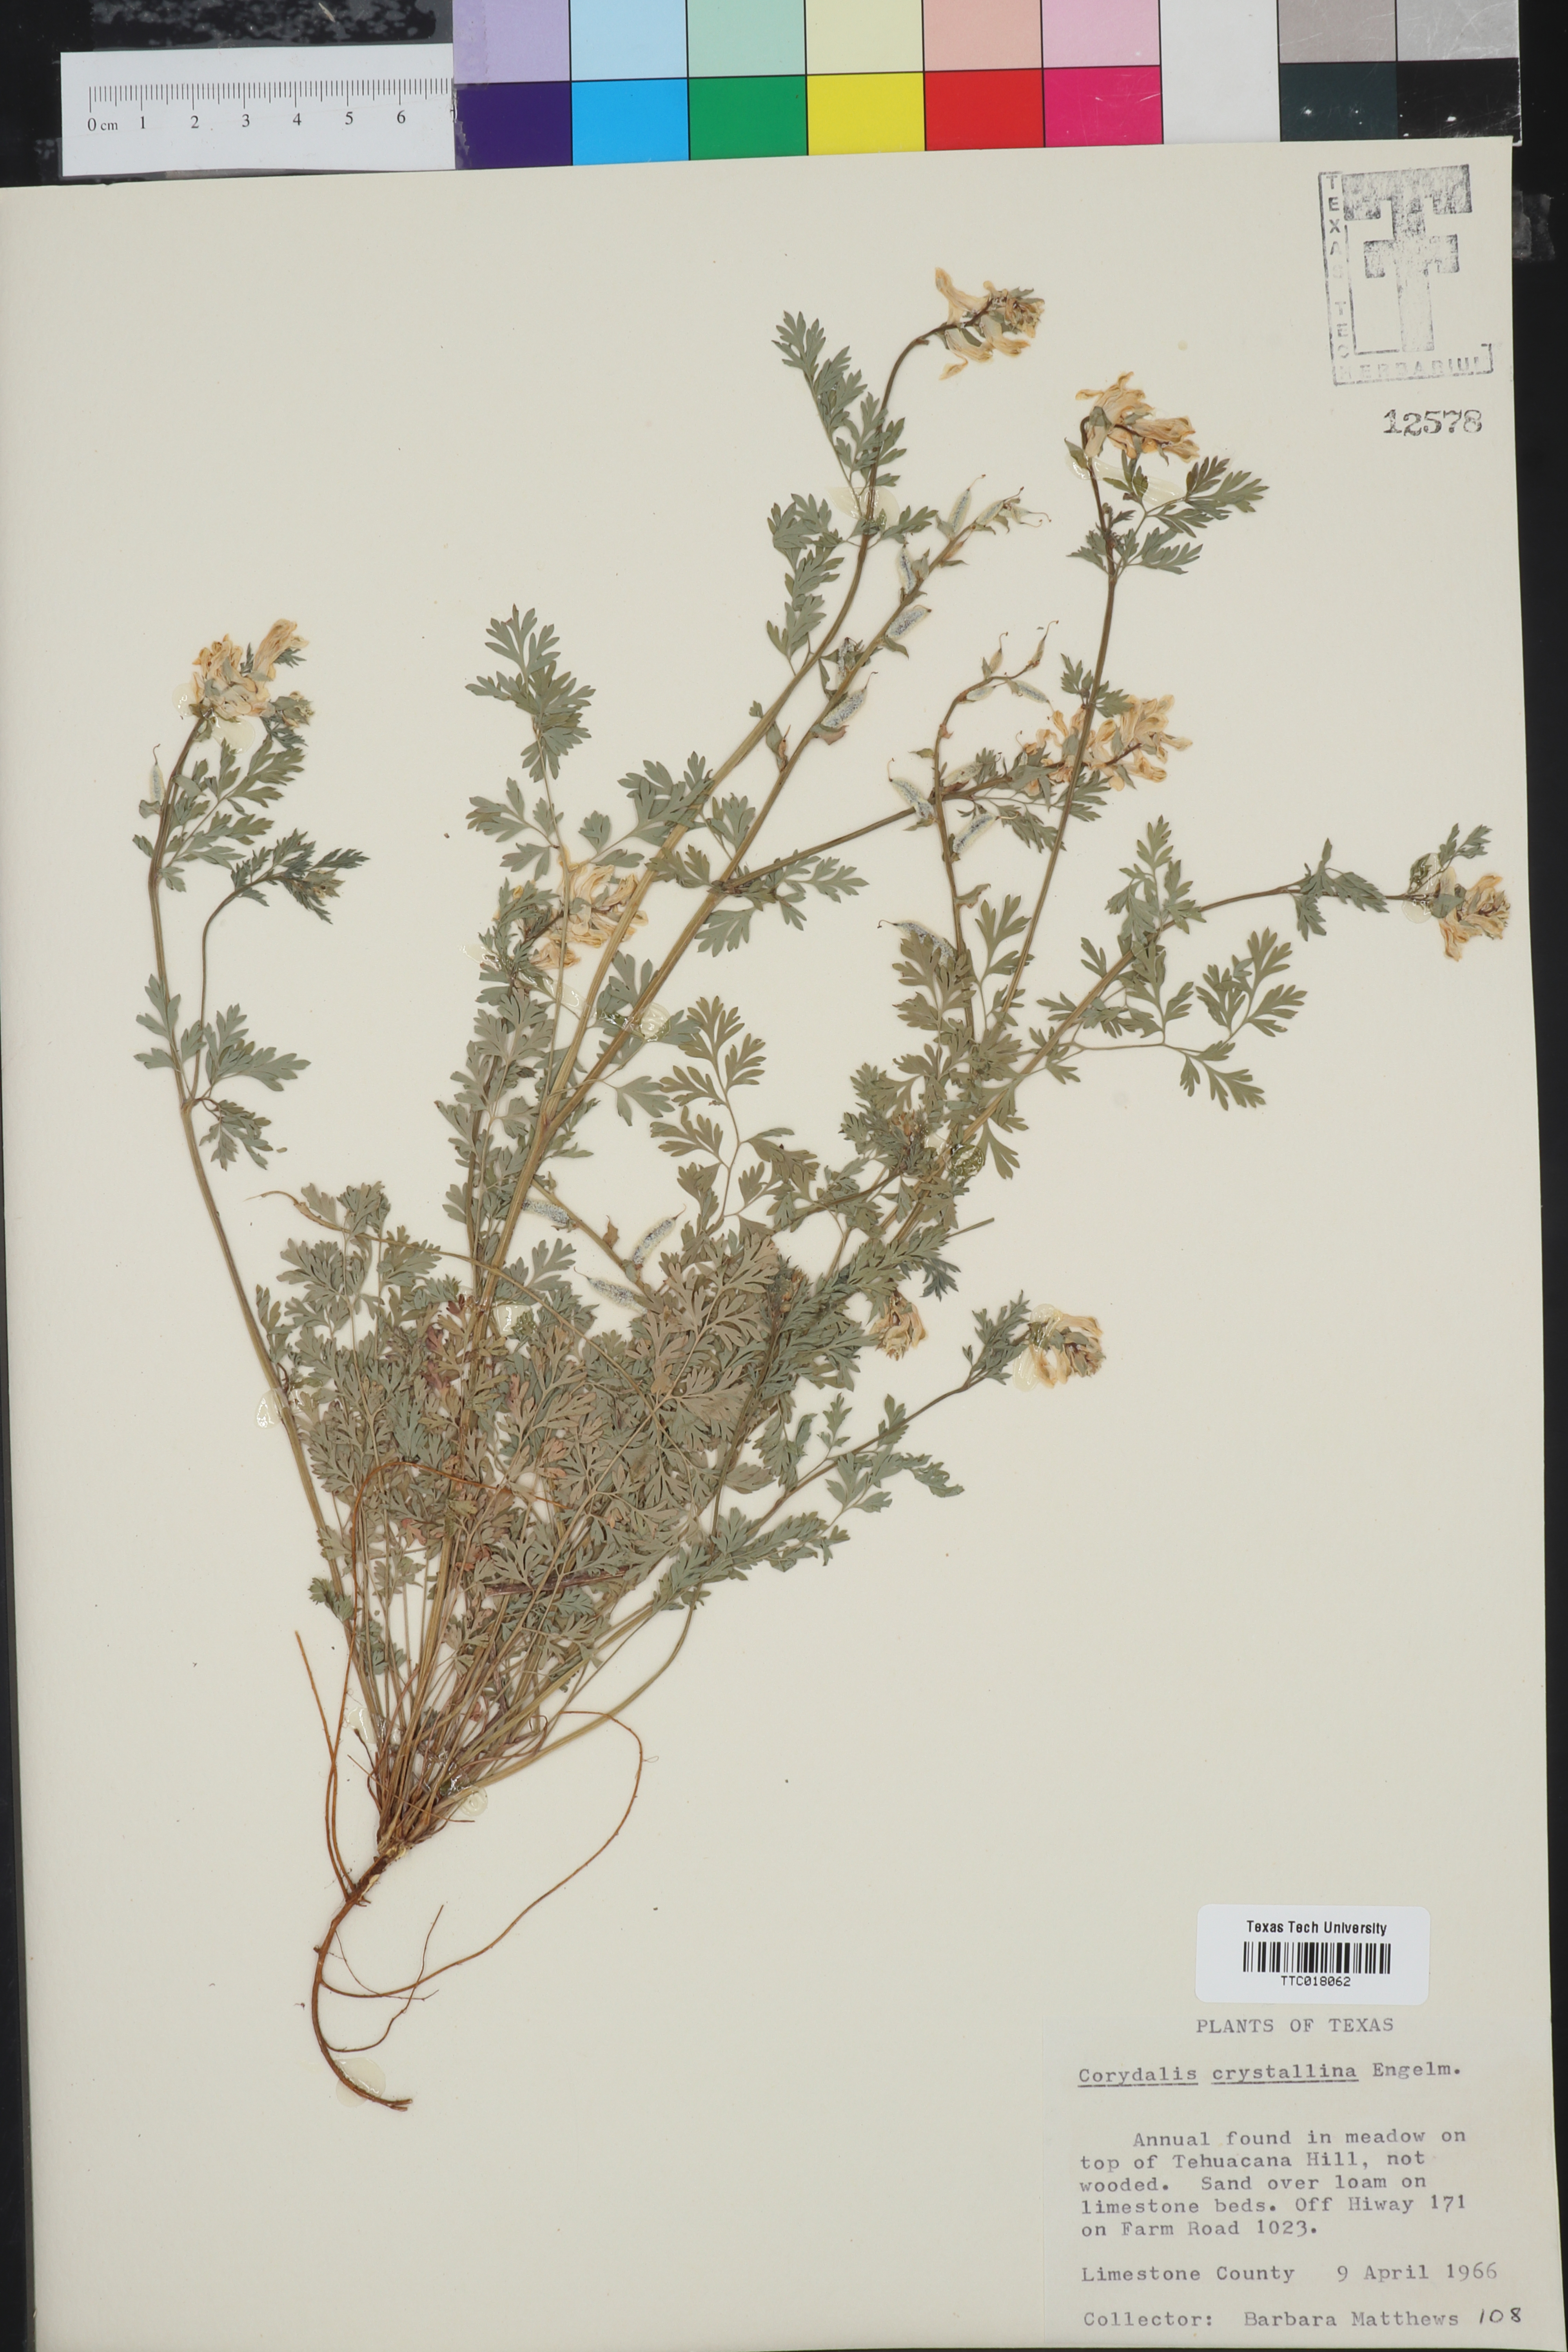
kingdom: Plantae
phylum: Tracheophyta
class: Magnoliopsida
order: Ranunculales
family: Papaveraceae
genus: Corydalis
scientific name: Corydalis crystallina
